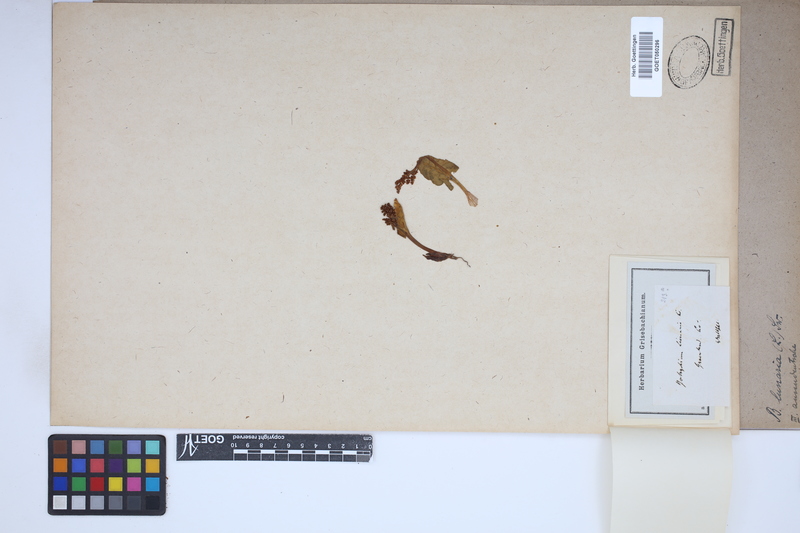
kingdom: Plantae
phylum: Tracheophyta
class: Polypodiopsida
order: Ophioglossales
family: Ophioglossaceae
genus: Botrychium
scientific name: Botrychium lunaria
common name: Moonwort
